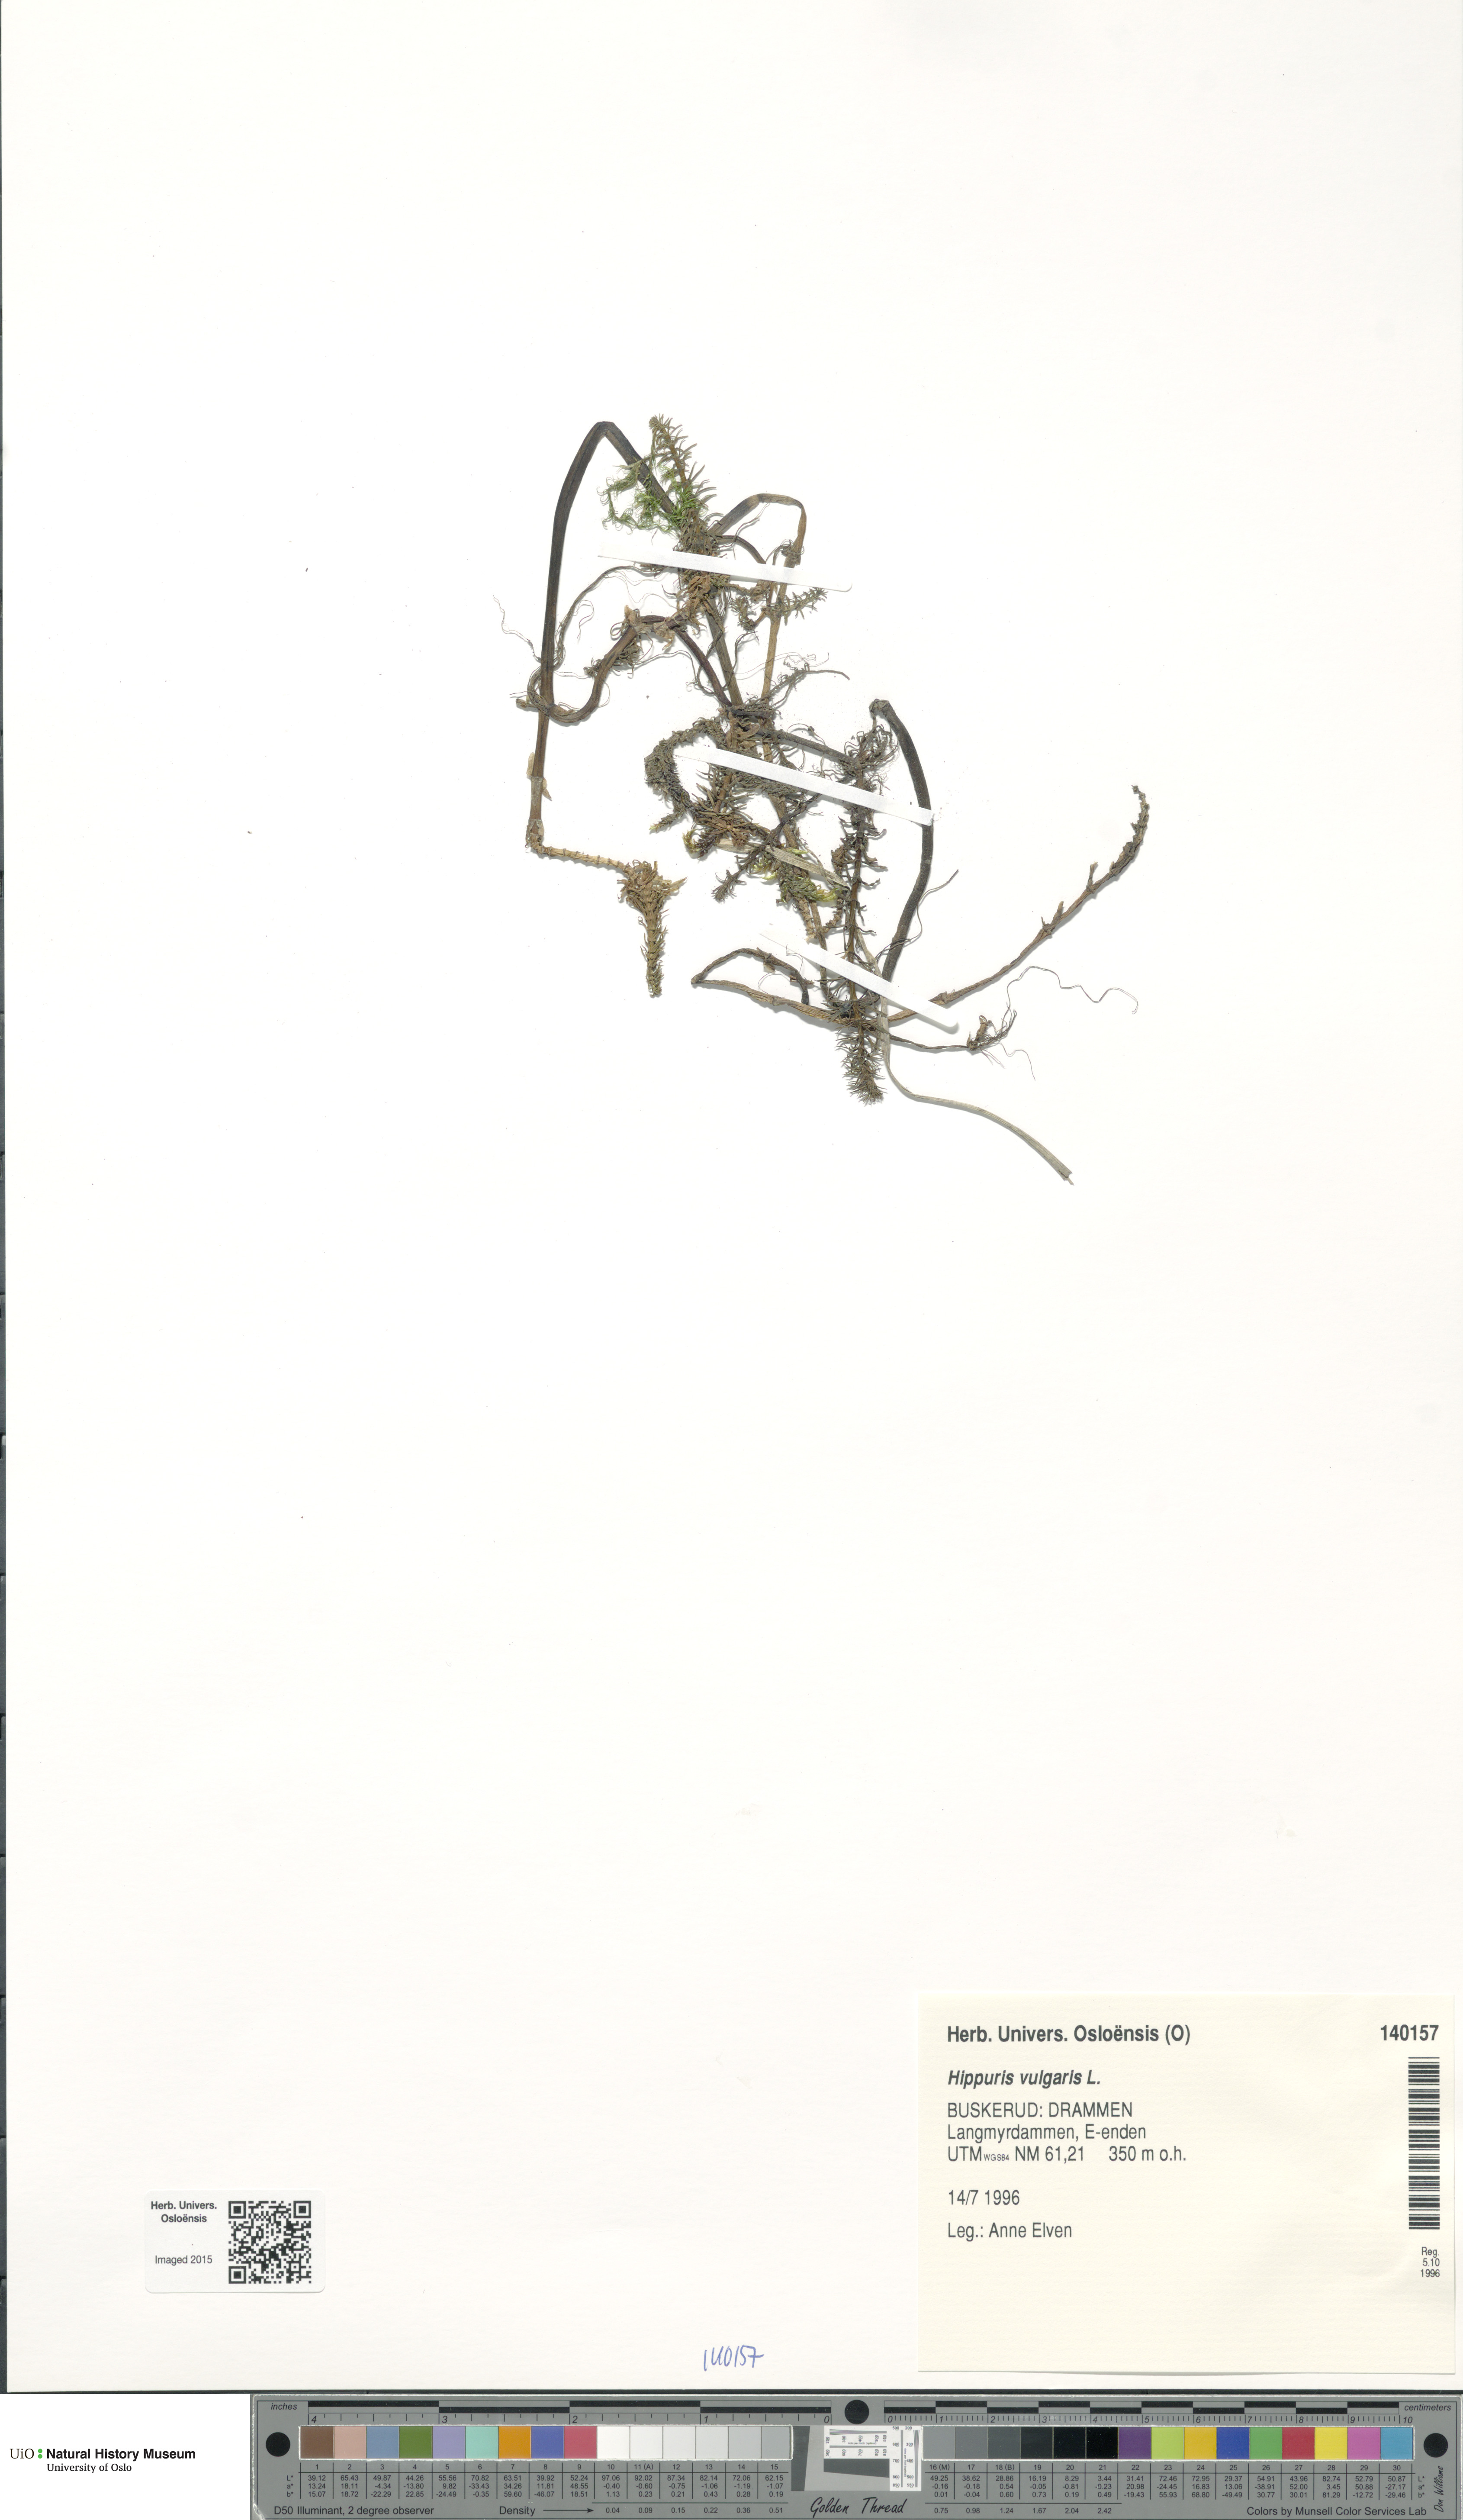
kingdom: Plantae
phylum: Tracheophyta
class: Magnoliopsida
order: Lamiales
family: Plantaginaceae
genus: Hippuris
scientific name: Hippuris vulgaris
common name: Mare's-tail
